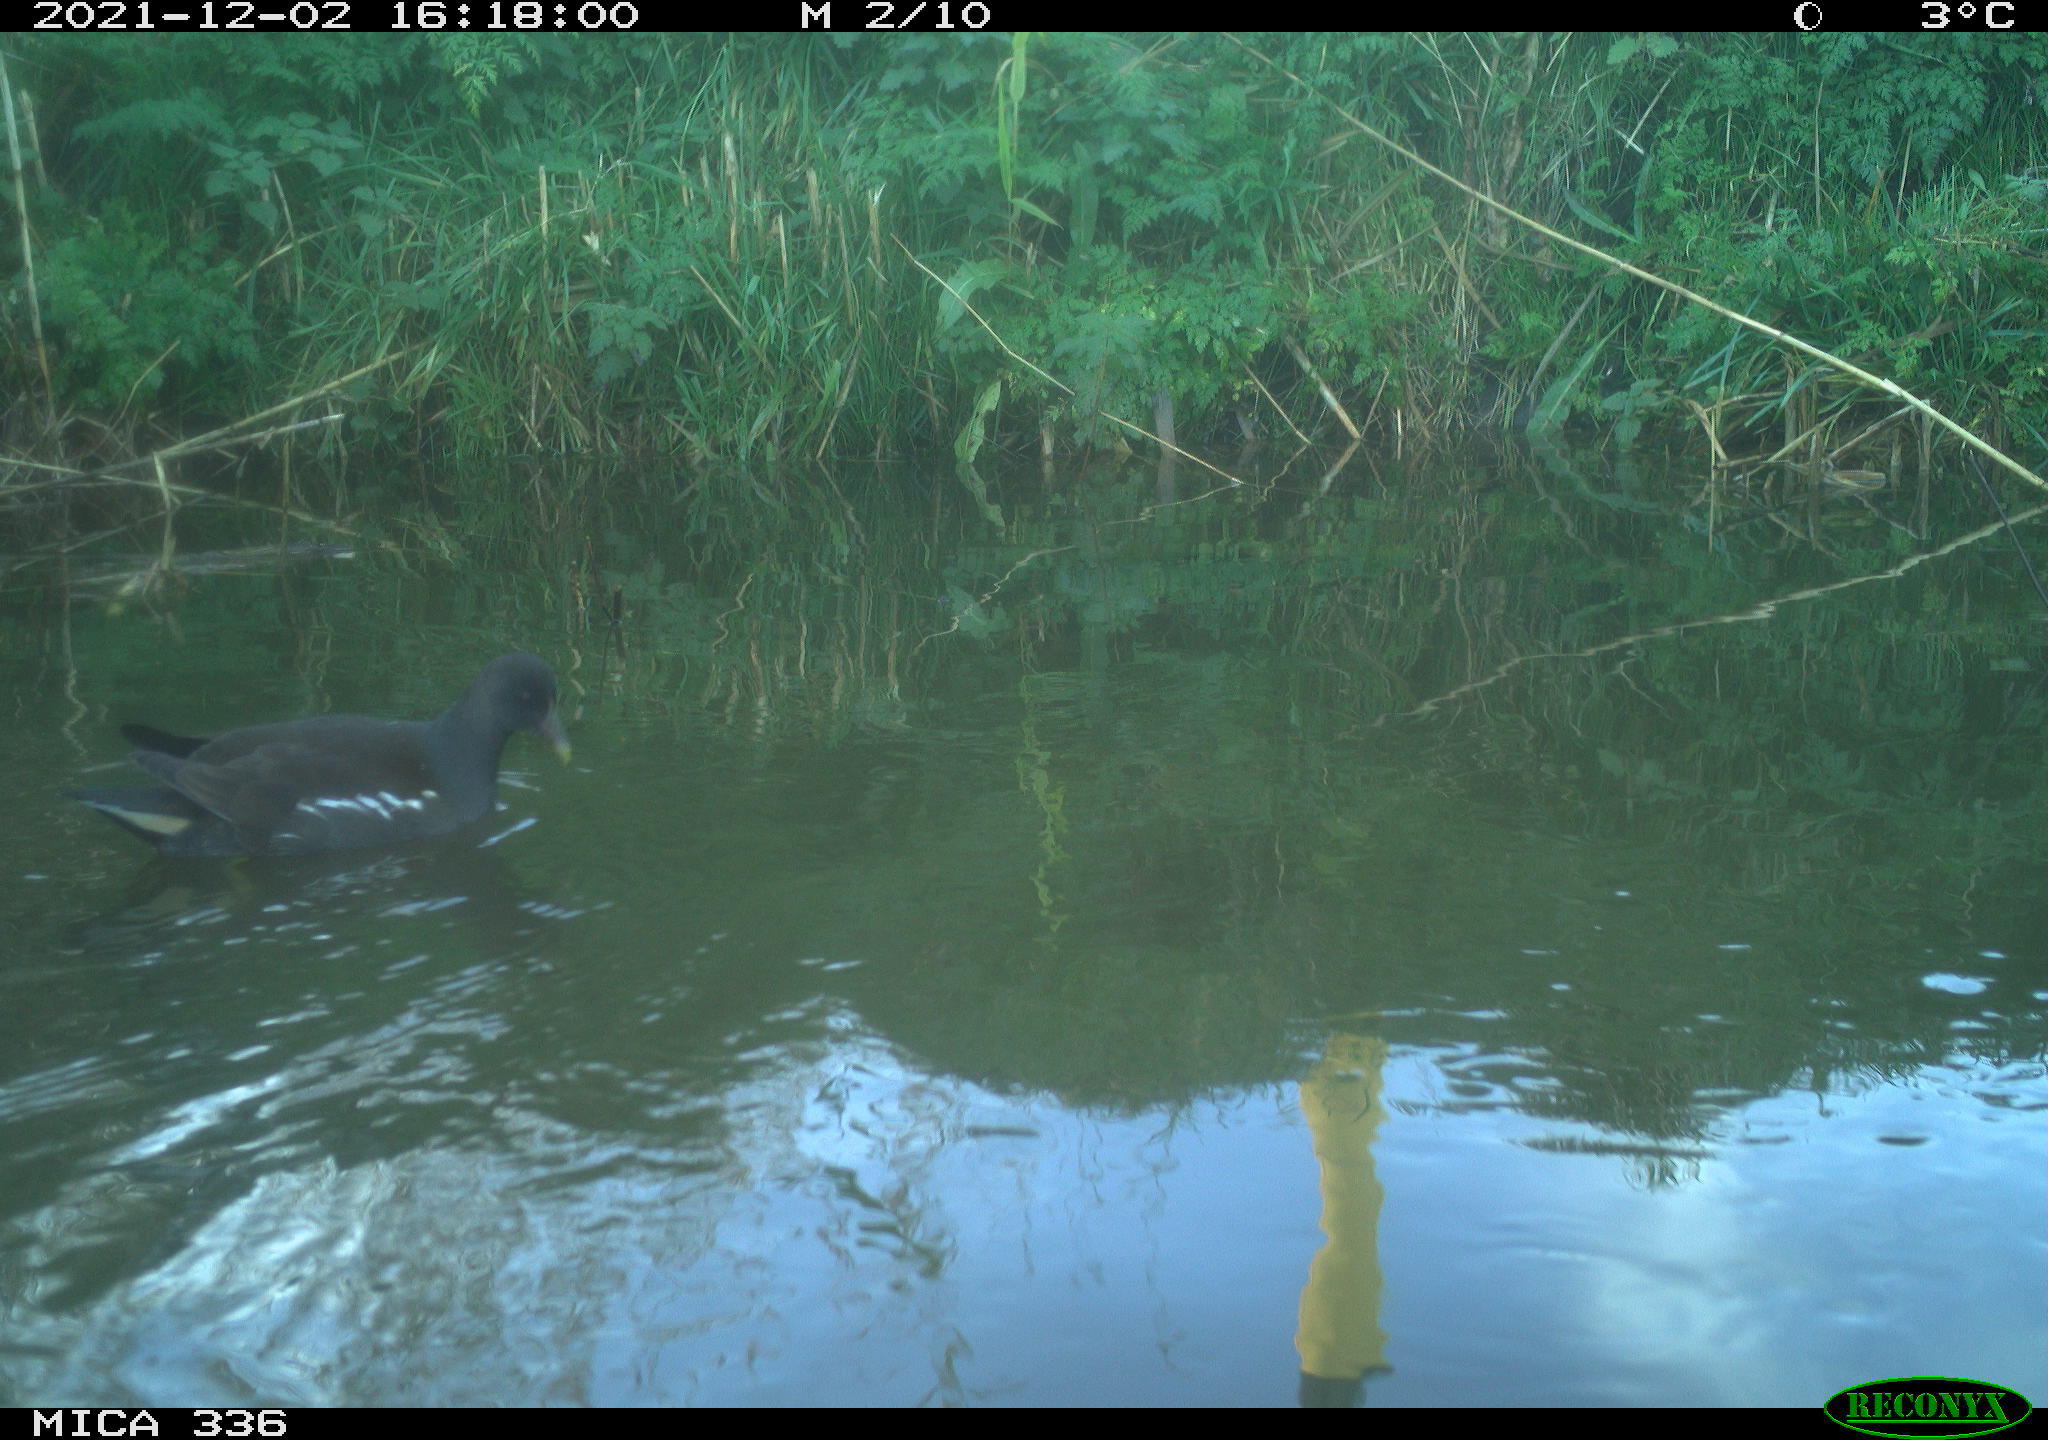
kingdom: Animalia
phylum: Chordata
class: Aves
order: Gruiformes
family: Rallidae
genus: Gallinula
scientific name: Gallinula chloropus
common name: Common moorhen
